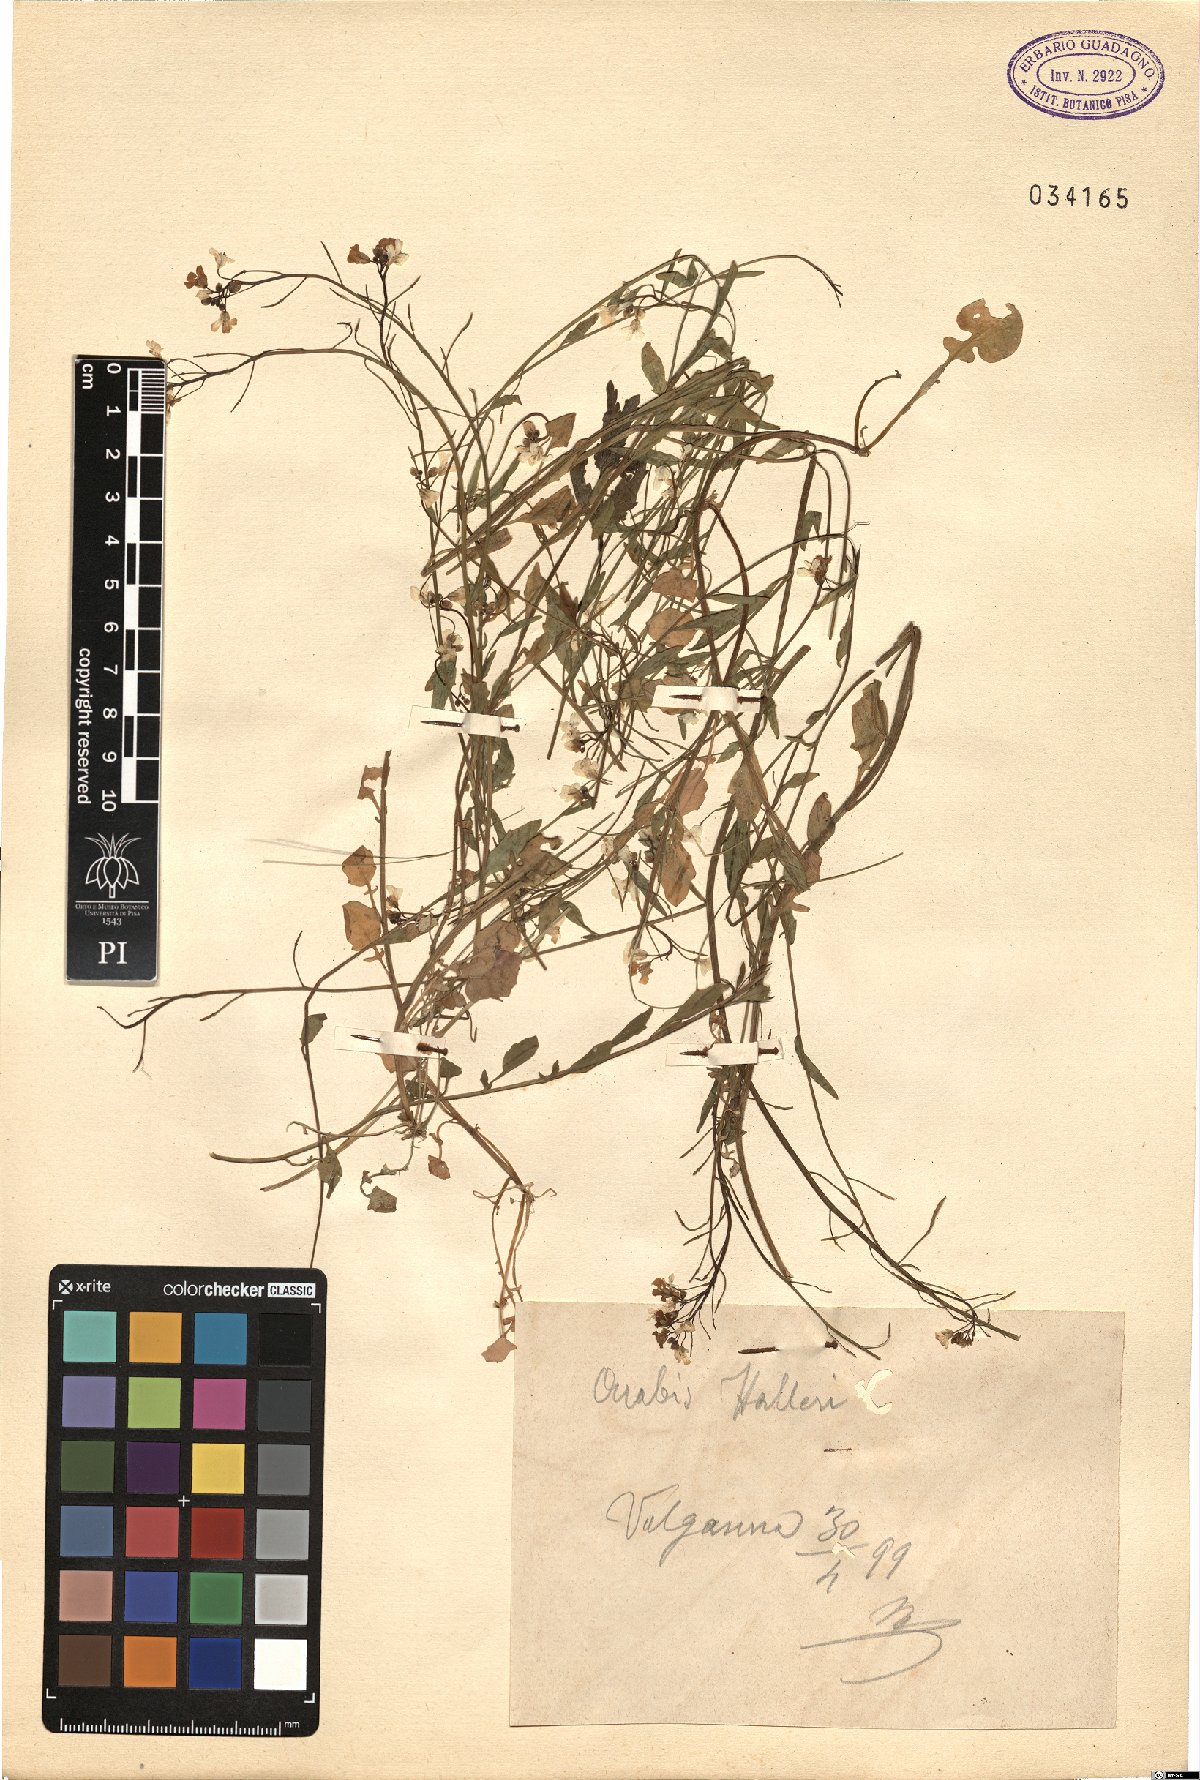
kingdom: Plantae
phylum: Tracheophyta
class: Magnoliopsida
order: Brassicales
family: Brassicaceae
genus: Arabidopsis
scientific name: Arabidopsis halleri
